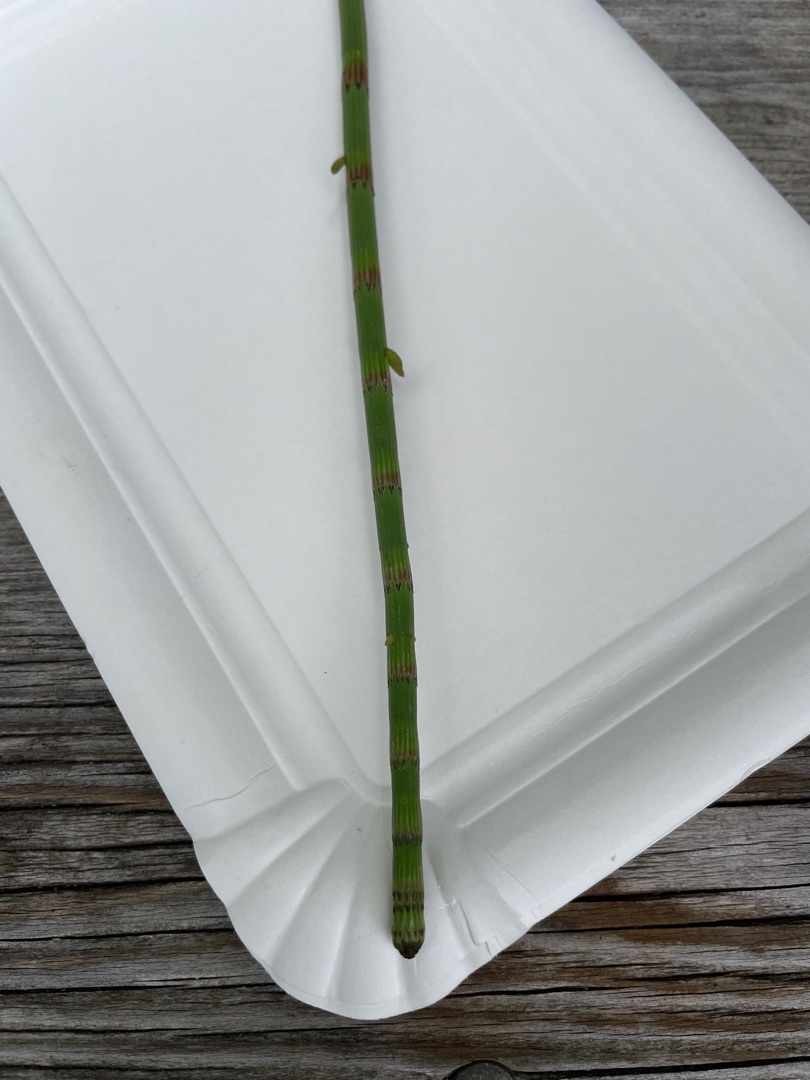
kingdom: Plantae
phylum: Tracheophyta
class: Polypodiopsida
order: Equisetales
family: Equisetaceae
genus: Equisetum
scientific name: Equisetum fluviatile
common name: Dynd-padderok
